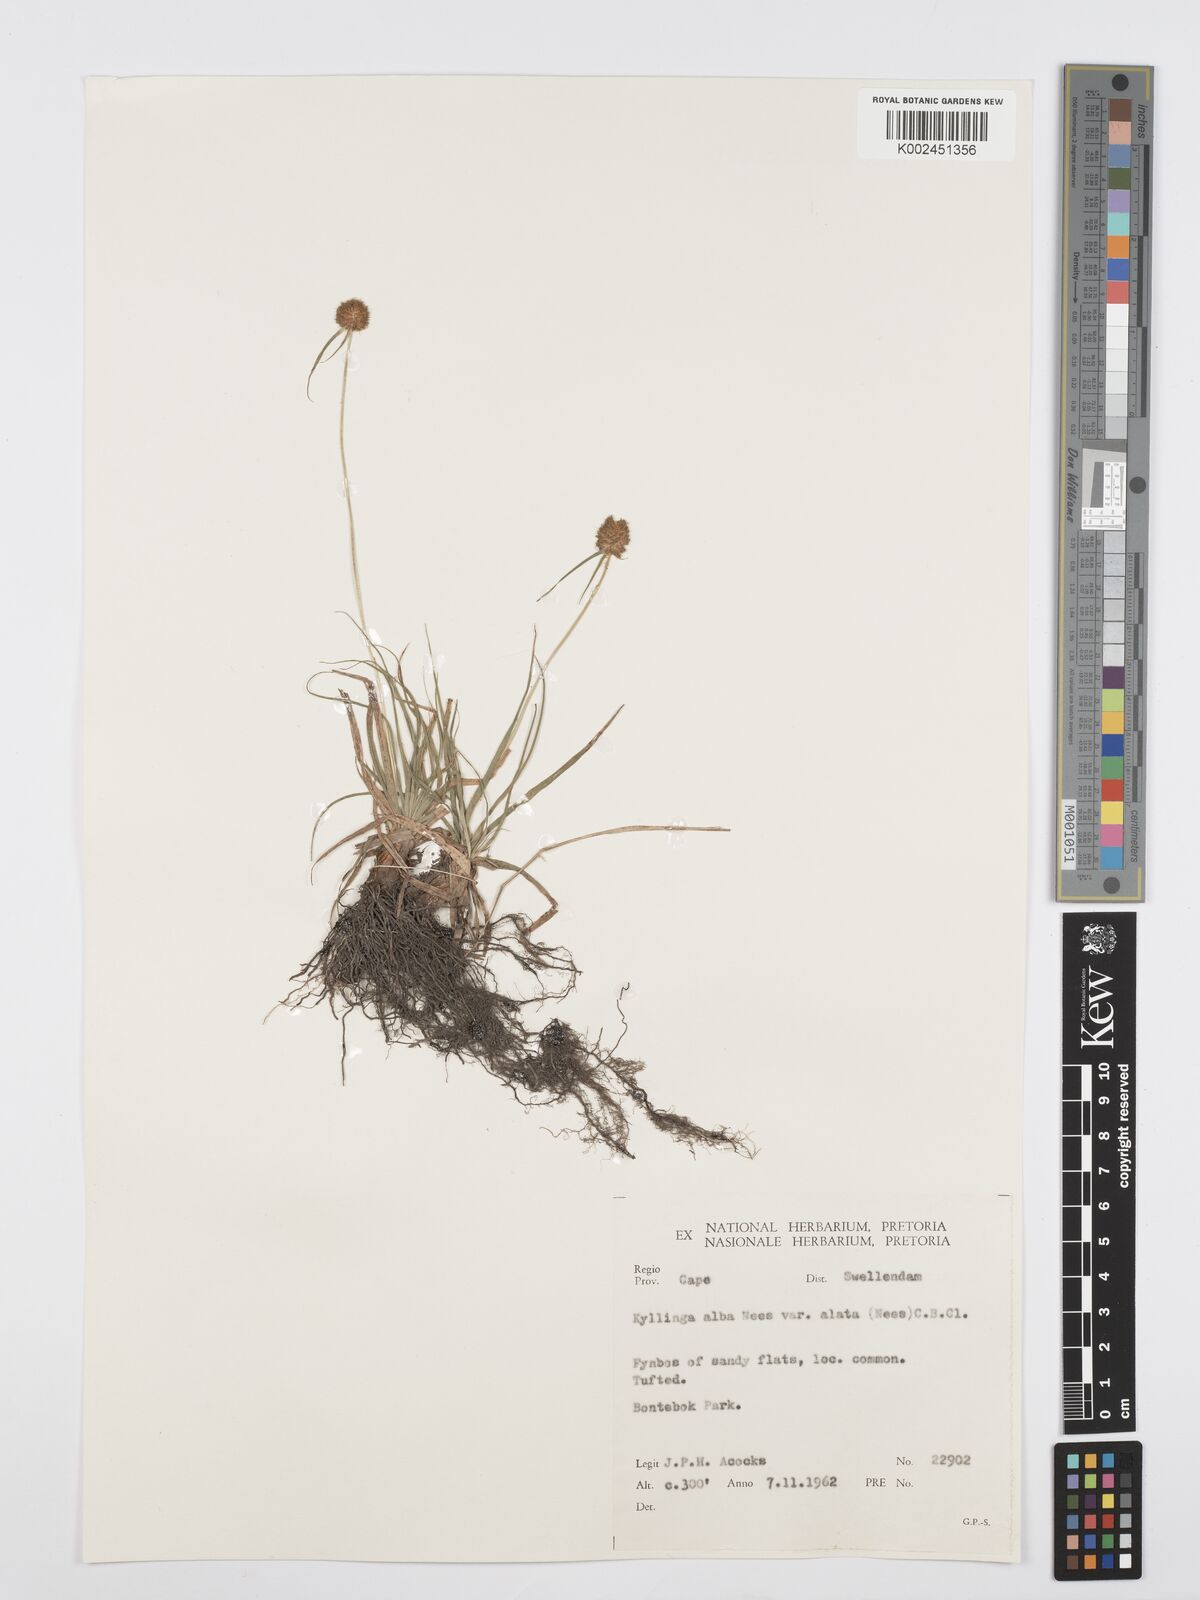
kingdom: Plantae
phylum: Tracheophyta
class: Liliopsida
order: Poales
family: Cyperaceae
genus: Cyperus
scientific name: Cyperus
